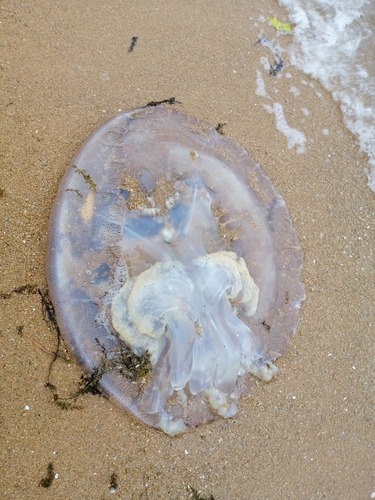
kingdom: Animalia
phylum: Cnidaria
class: Scyphozoa
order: Rhizostomeae
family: Rhizostomatidae
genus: Rhopilema
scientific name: Rhopilema hispidum
